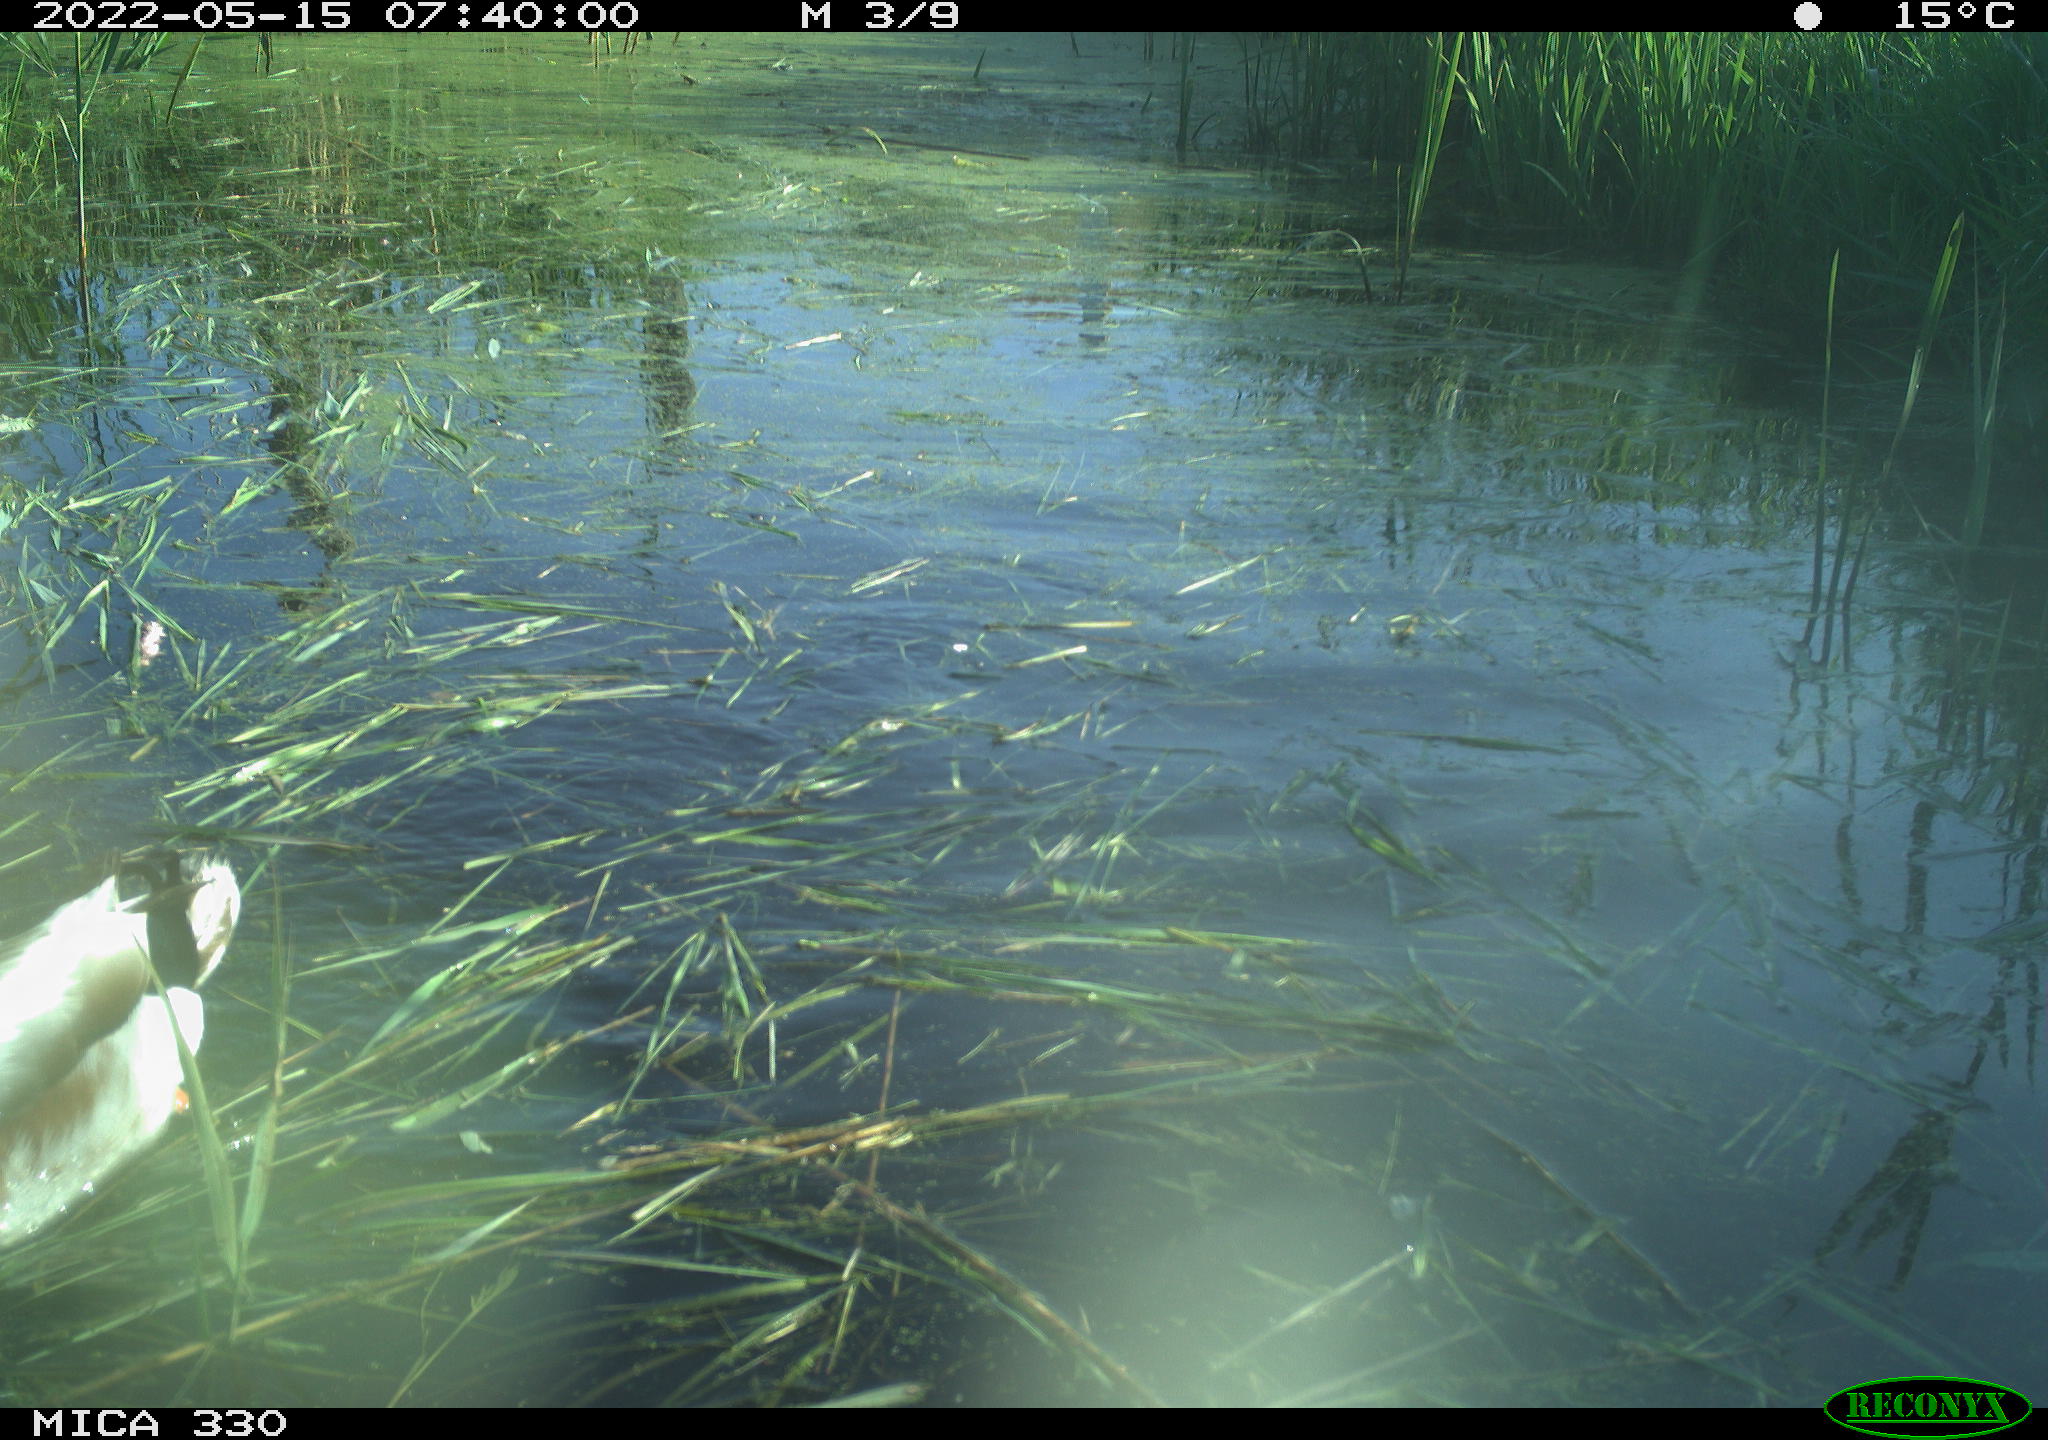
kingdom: Animalia
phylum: Chordata
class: Aves
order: Anseriformes
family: Anatidae
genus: Anas
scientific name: Anas platyrhynchos
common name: Mallard
